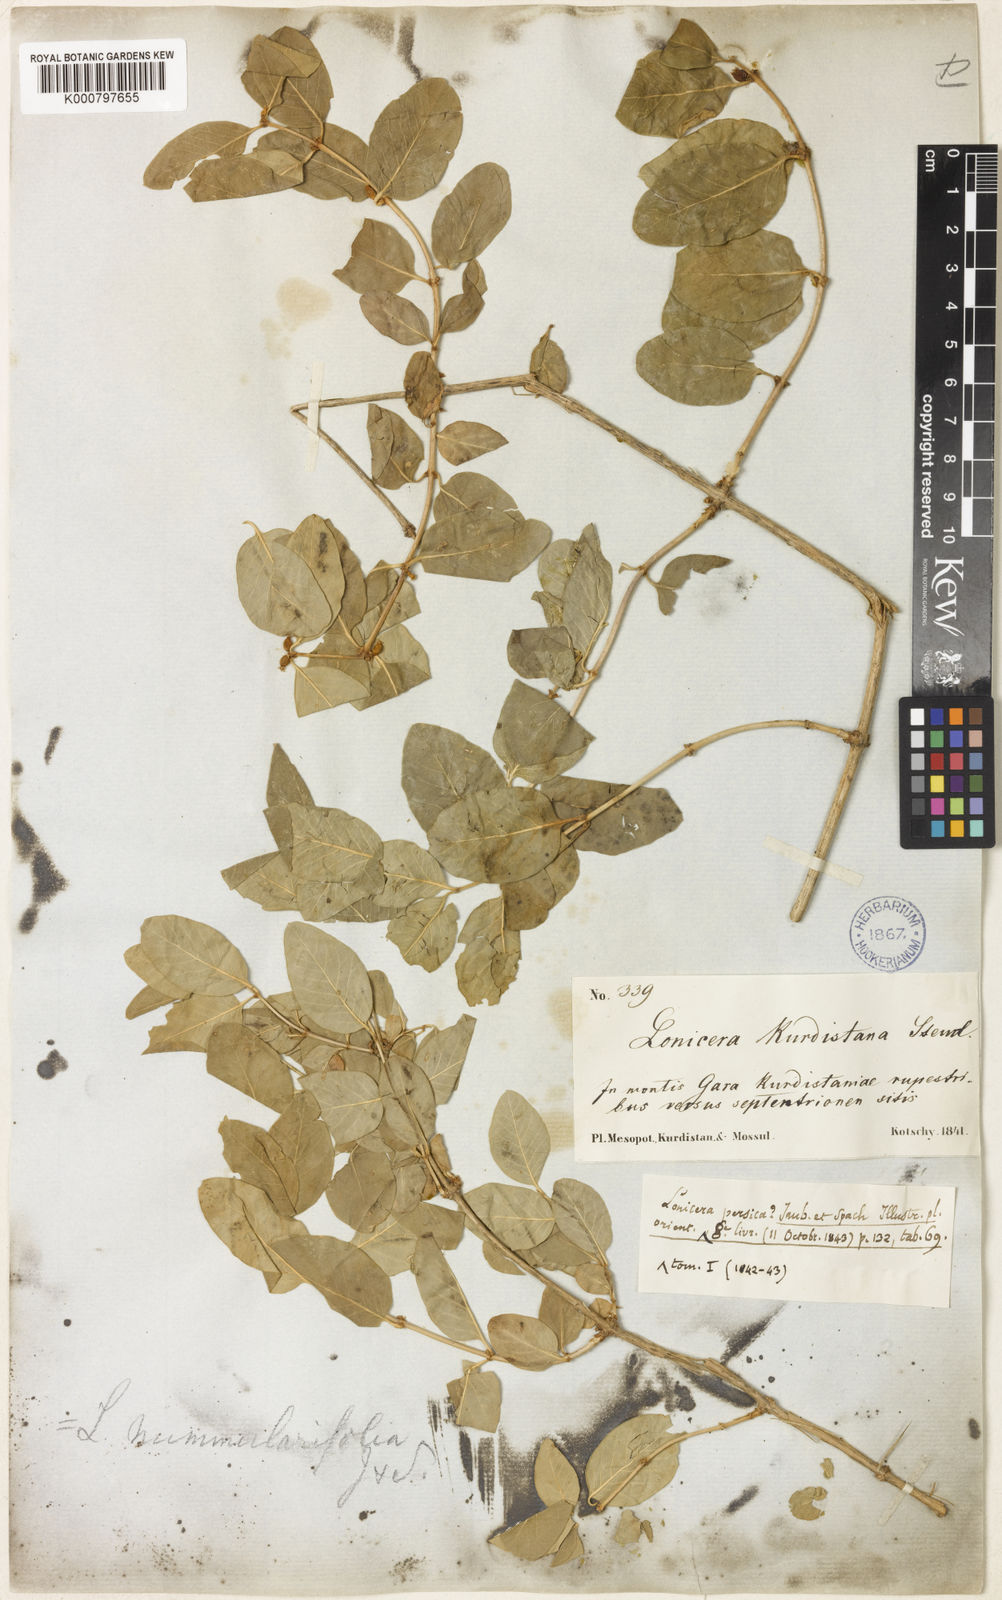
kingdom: Plantae
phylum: Tracheophyta
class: Magnoliopsida
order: Dipsacales
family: Caprifoliaceae
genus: Lonicera
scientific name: Lonicera arborea
